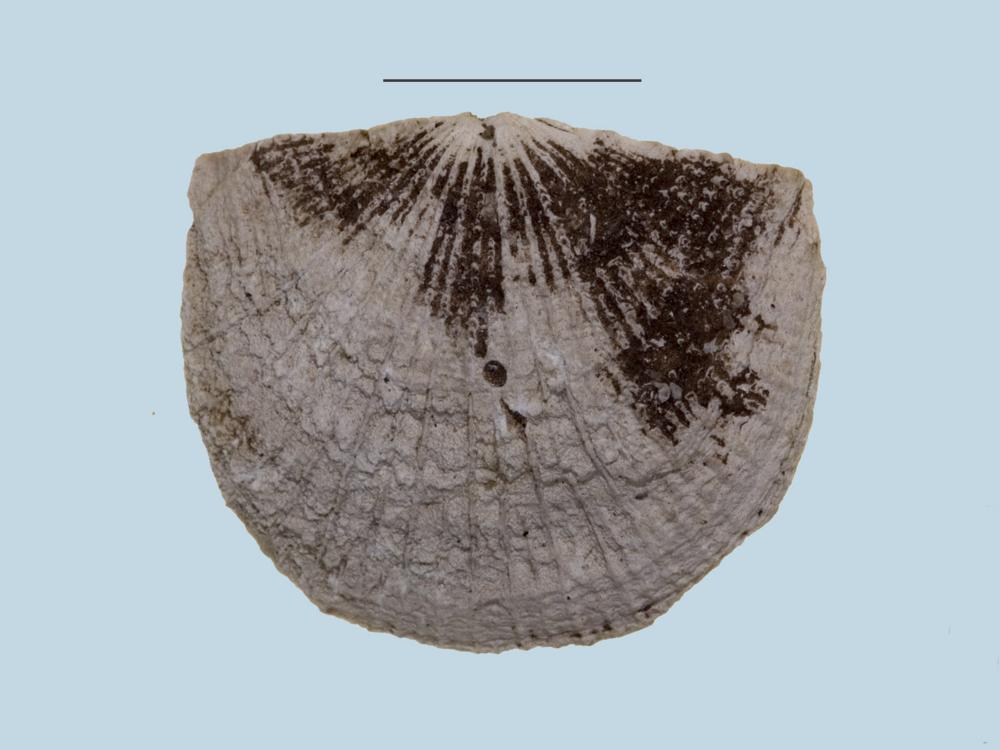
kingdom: Animalia
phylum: Brachiopoda
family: Gonambonitidae
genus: Estlandia
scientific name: Estlandia Orthisina marginata
